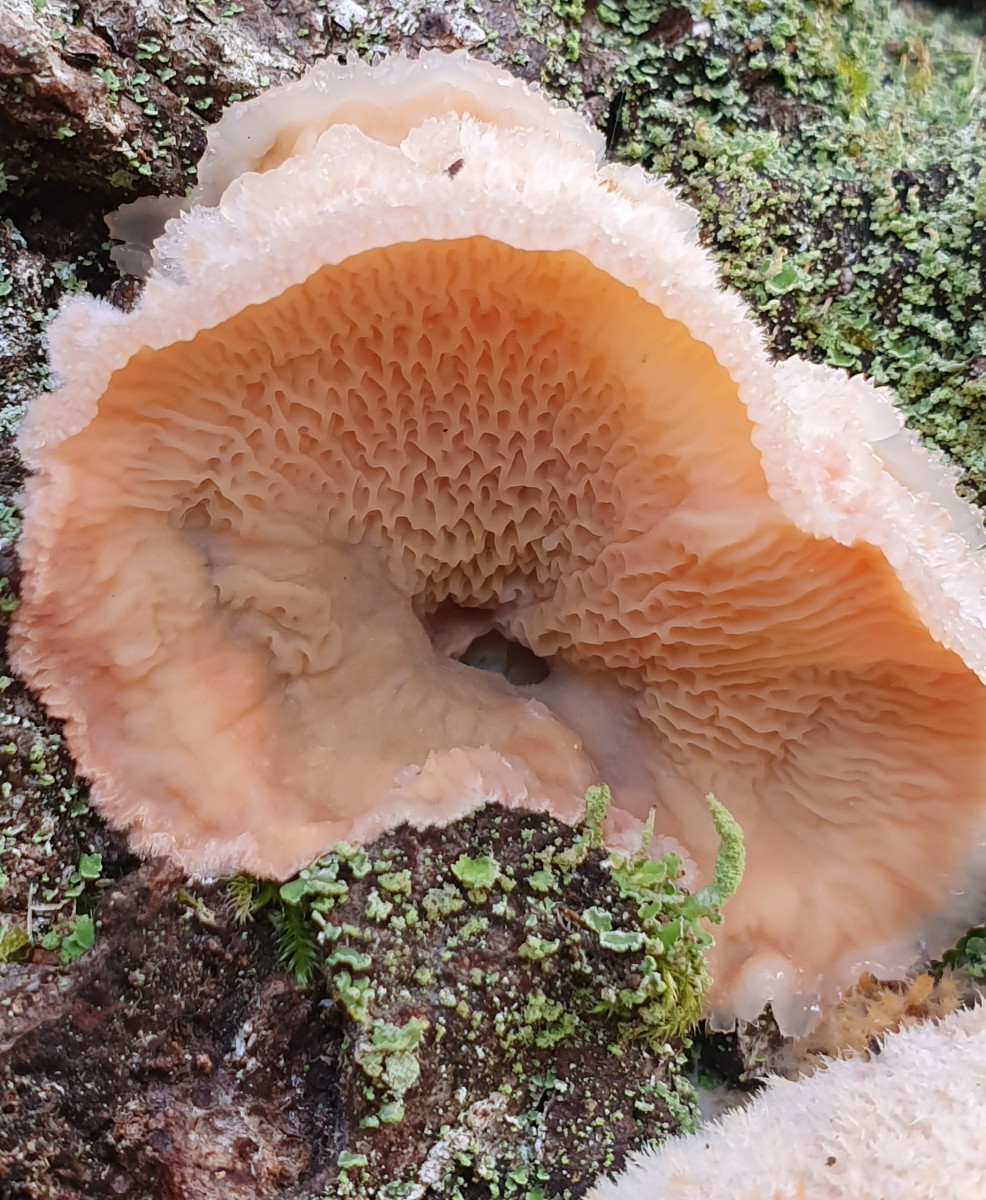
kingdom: Fungi
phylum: Basidiomycota
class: Agaricomycetes
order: Polyporales
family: Meruliaceae
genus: Phlebia
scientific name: Phlebia tremellosa
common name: bævrende åresvamp
